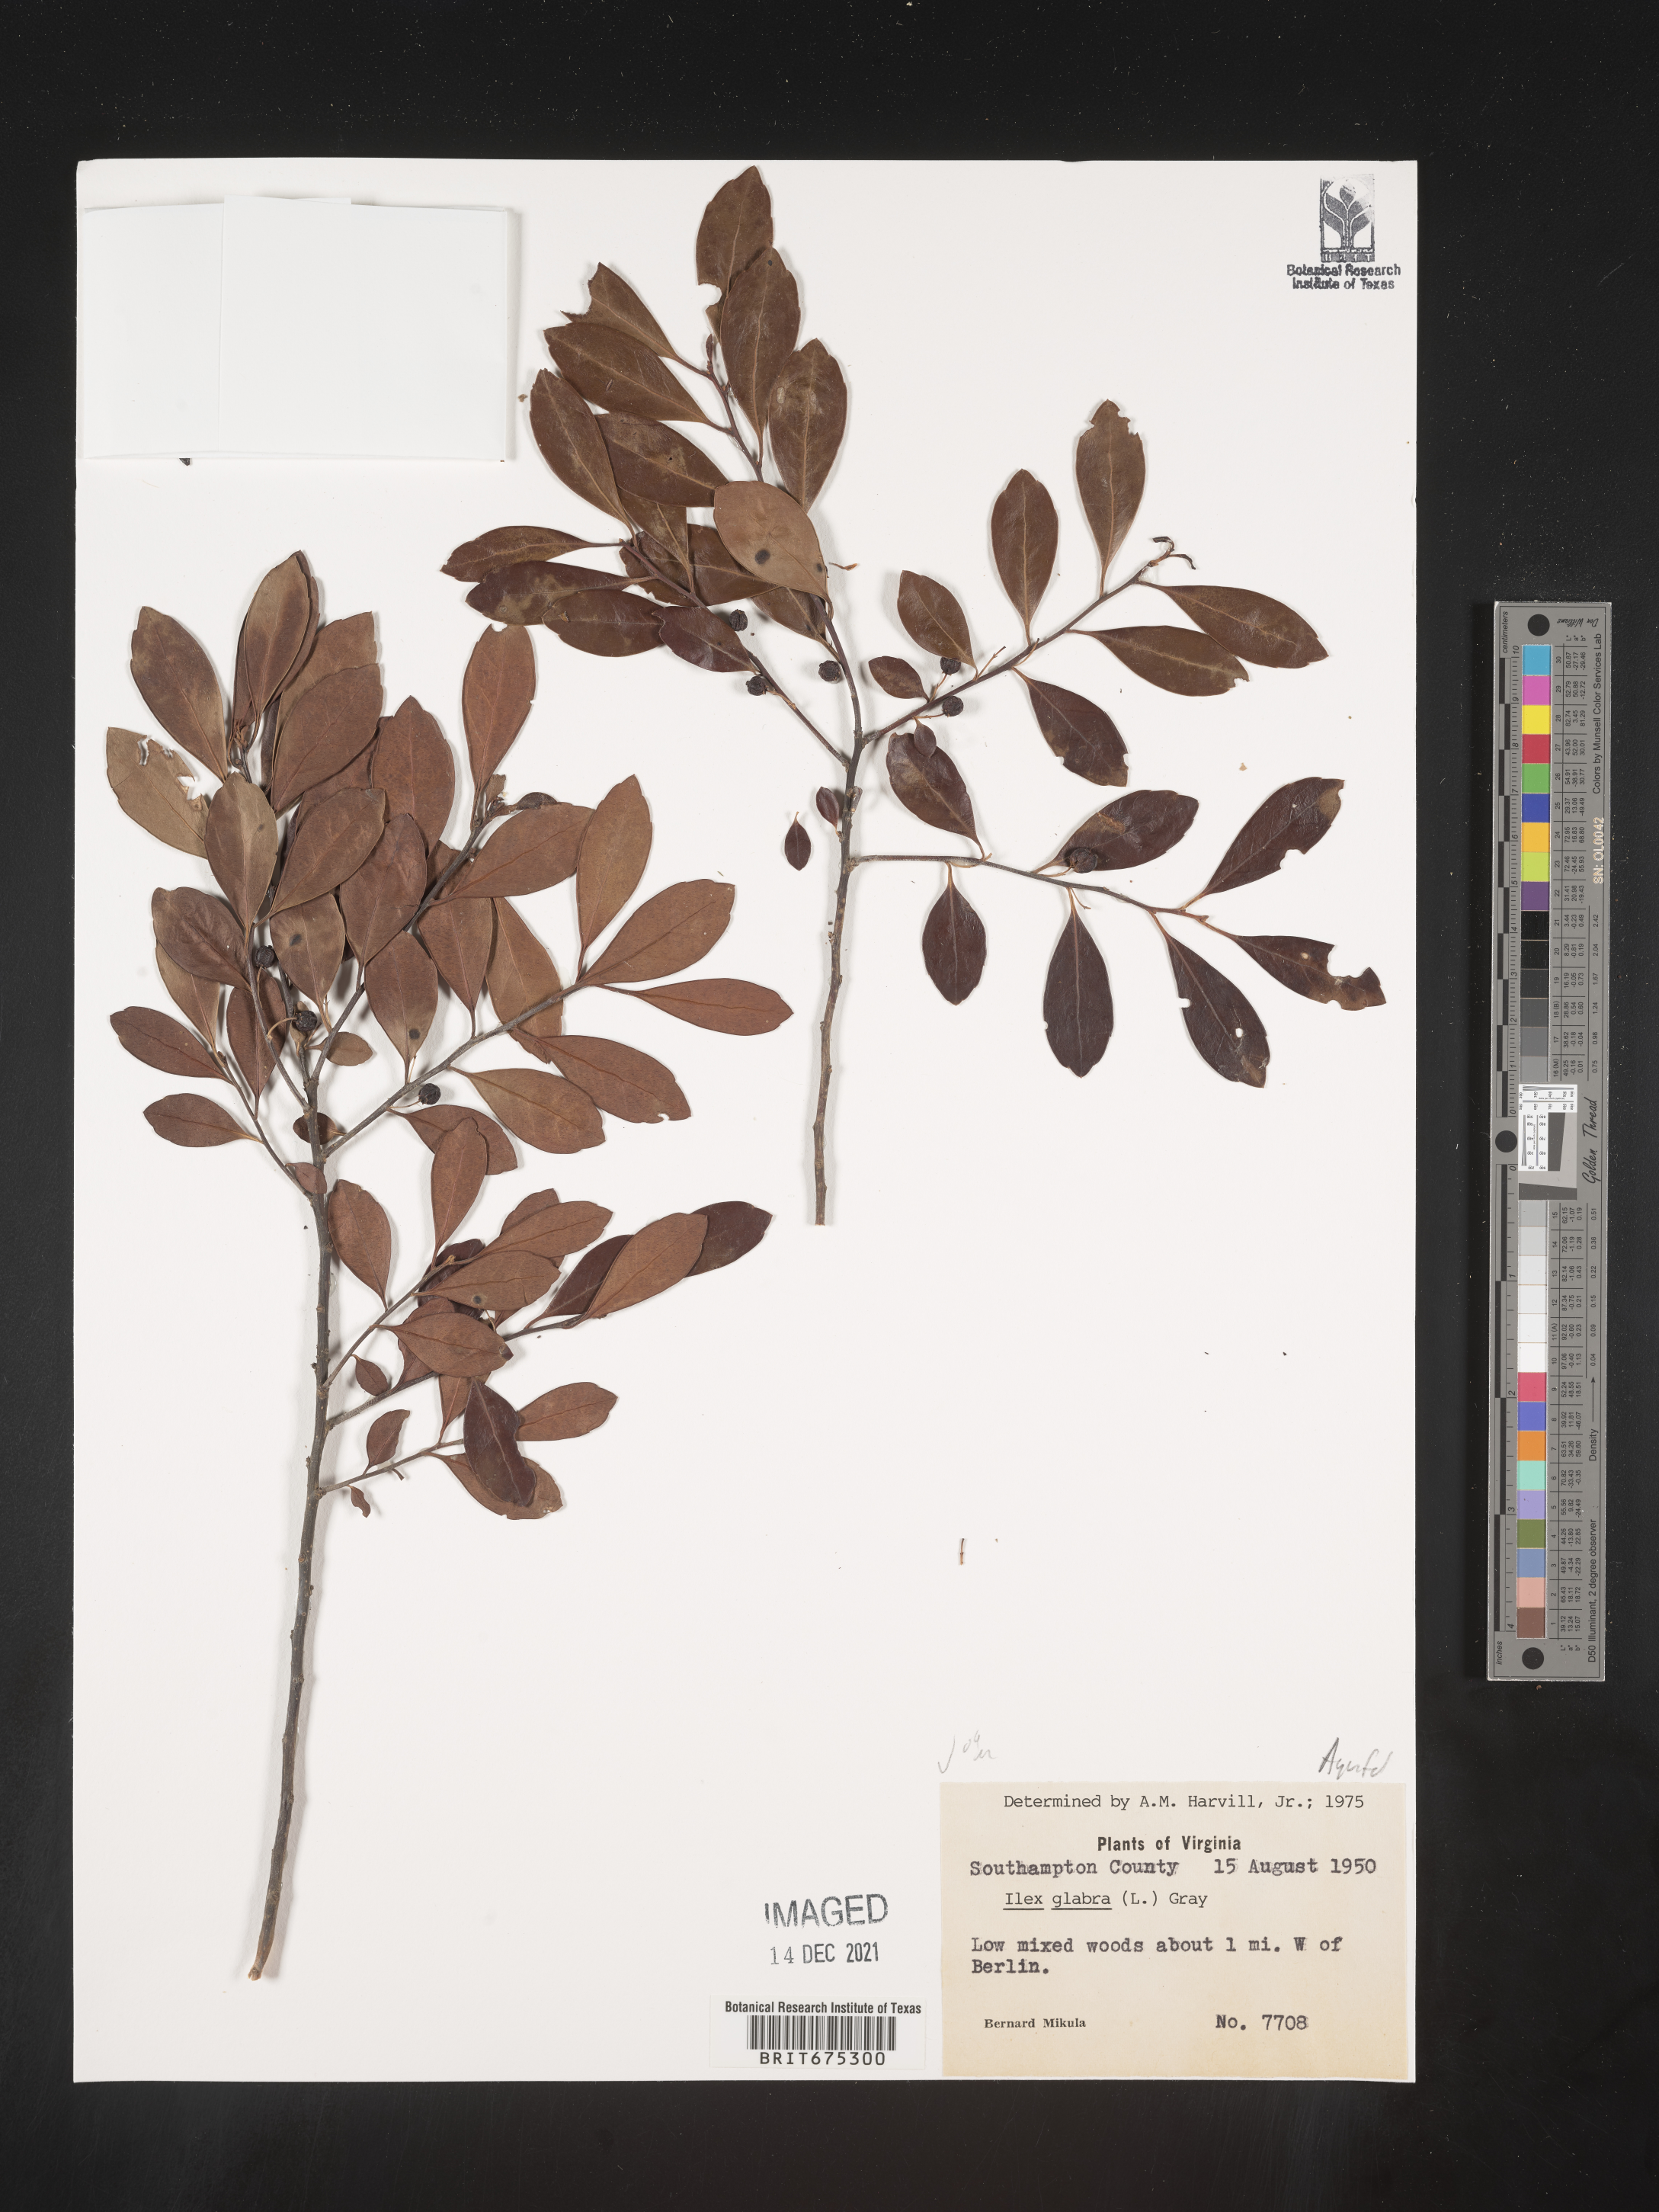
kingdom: Plantae
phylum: Tracheophyta
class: Magnoliopsida
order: Aquifoliales
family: Aquifoliaceae
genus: Ilex
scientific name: Ilex glabra
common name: Bitter gallberry
